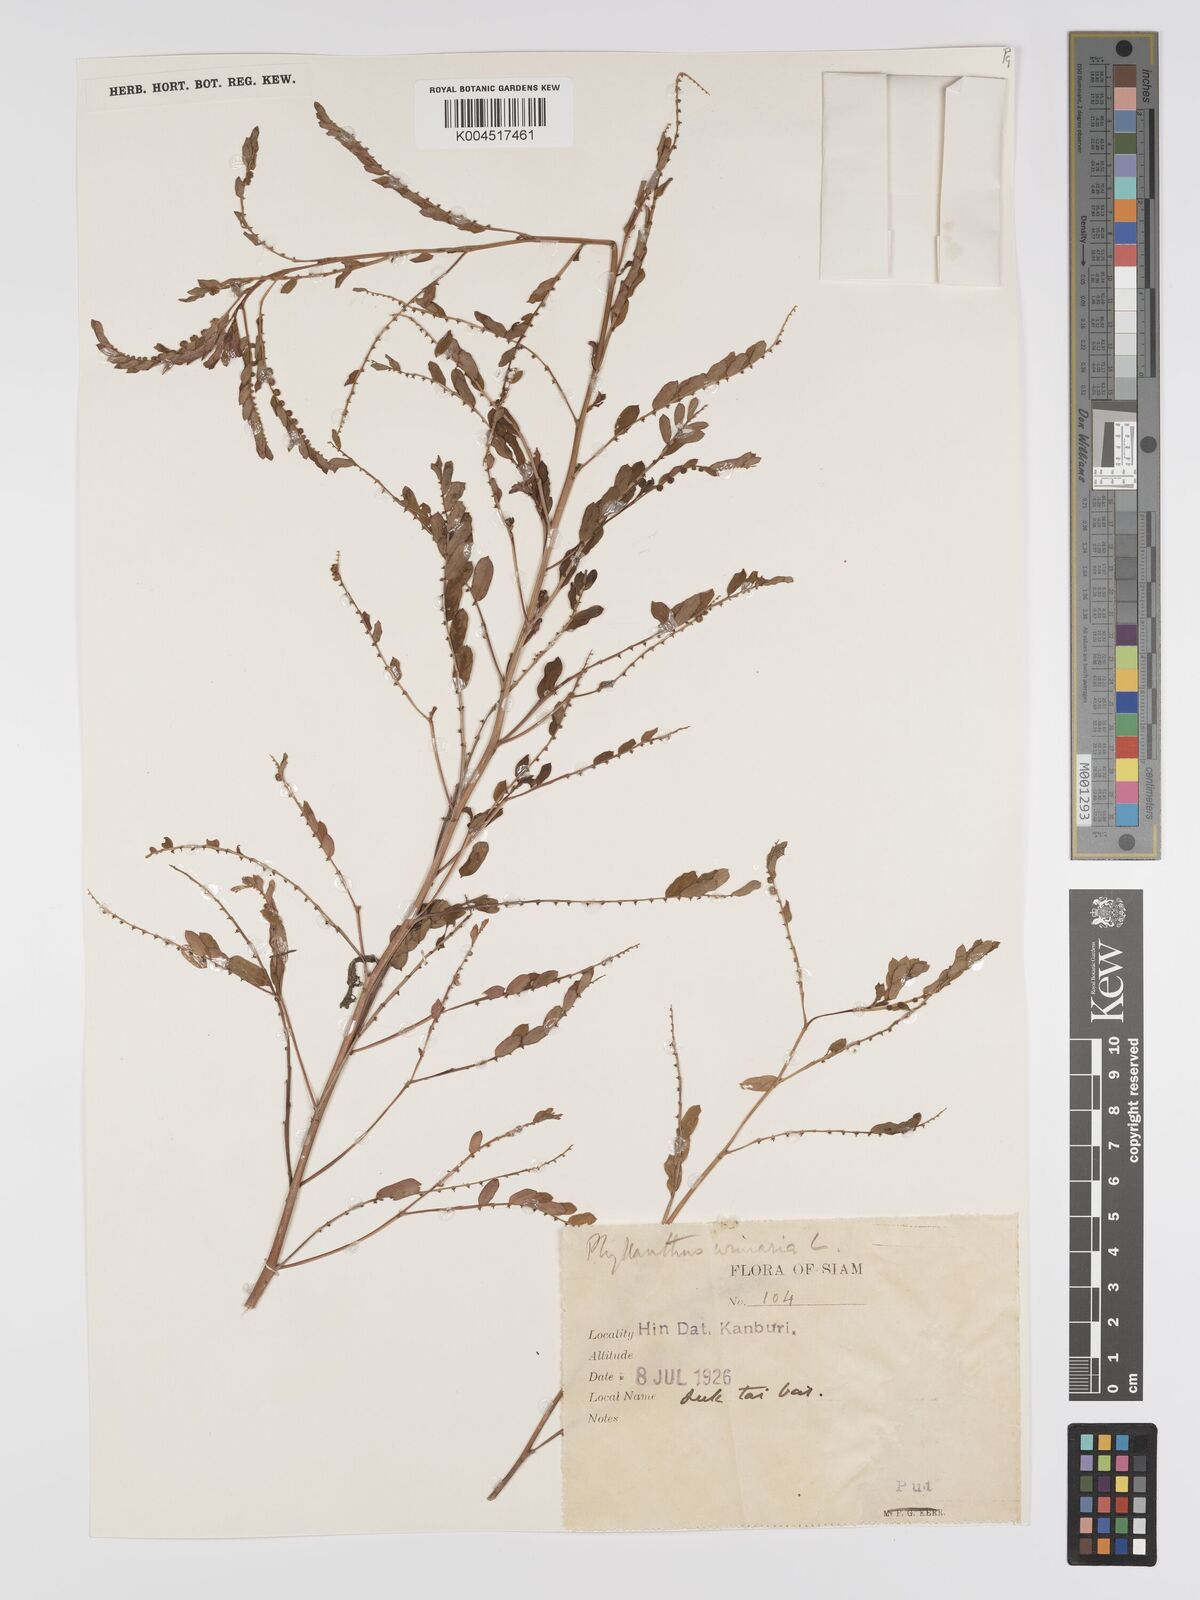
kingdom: Plantae
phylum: Tracheophyta
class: Magnoliopsida
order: Malpighiales
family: Phyllanthaceae
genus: Phyllanthus
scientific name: Phyllanthus urinaria
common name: Chamber bitter
